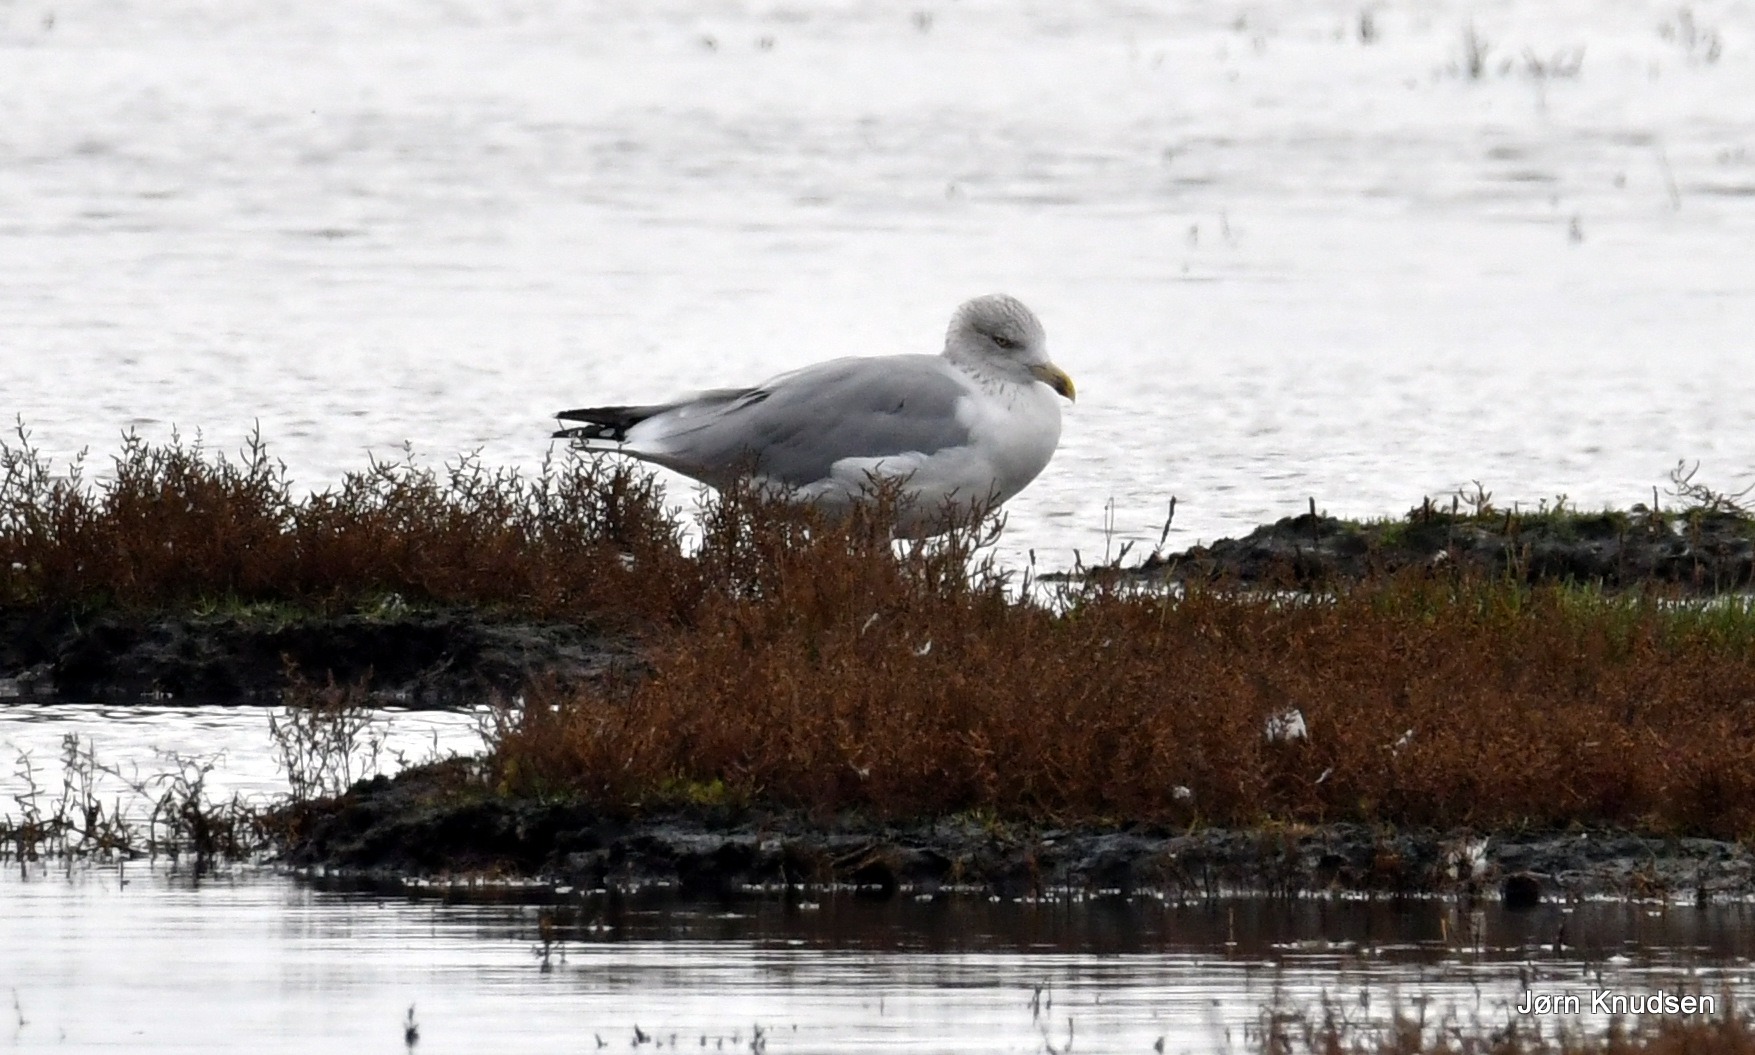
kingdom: Animalia
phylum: Chordata
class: Aves
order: Charadriiformes
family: Laridae
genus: Larus
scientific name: Larus argentatus
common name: Sølvmåge
